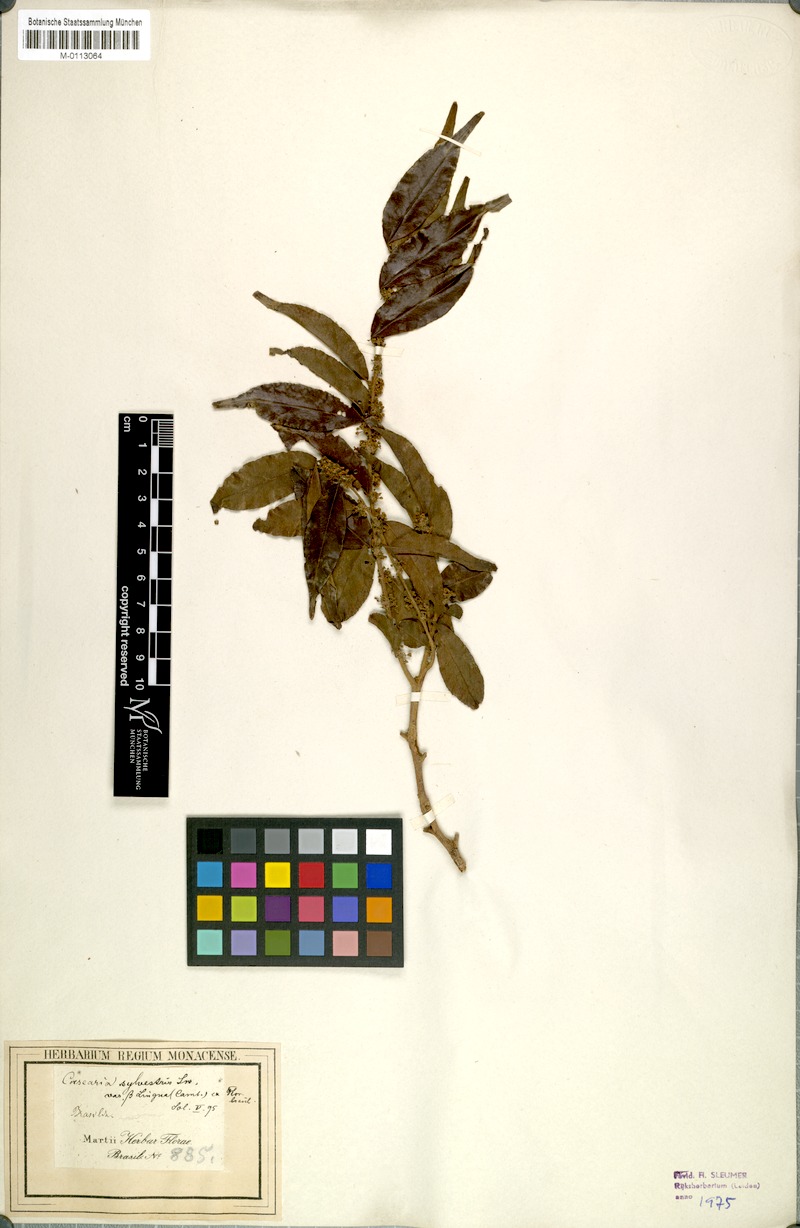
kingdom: Plantae
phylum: Tracheophyta
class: Magnoliopsida
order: Malpighiales
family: Salicaceae
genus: Casearia
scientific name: Casearia sylvestris
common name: Wild sage
